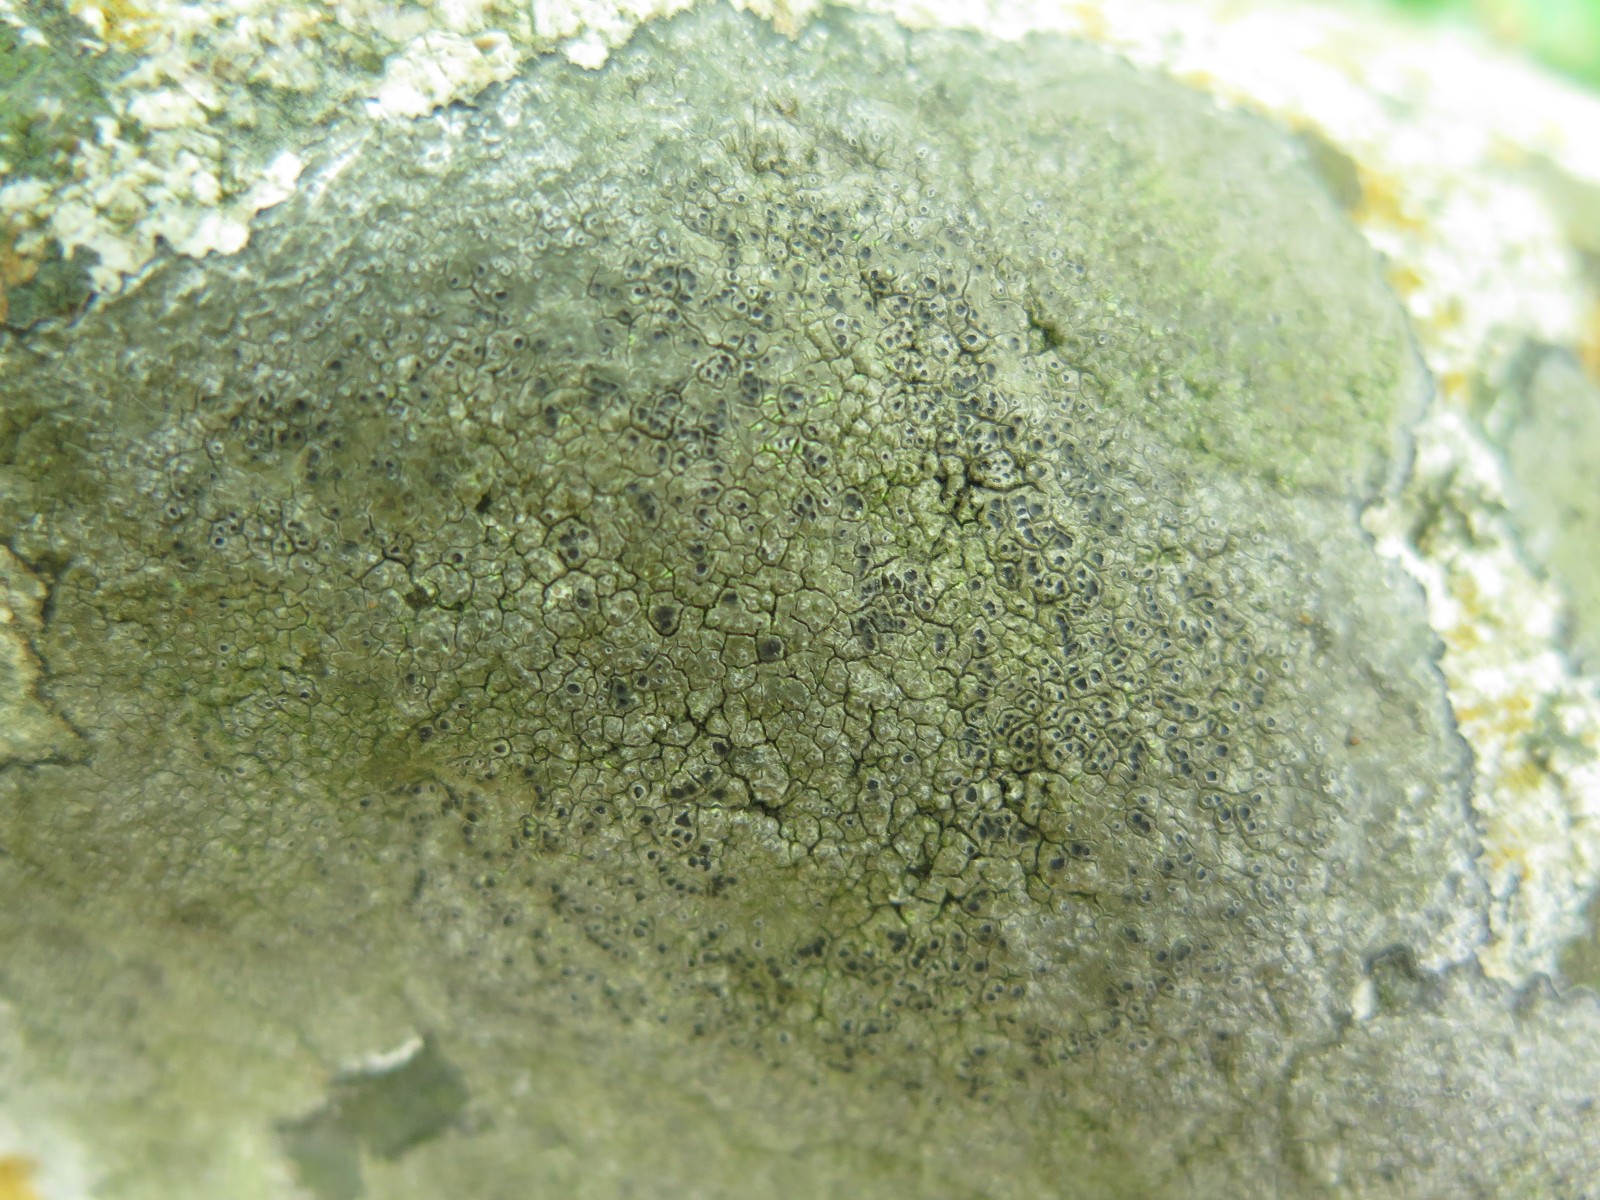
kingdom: Fungi
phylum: Ascomycota
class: Lecanoromycetes
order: Pertusariales
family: Megasporaceae
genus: Circinaria
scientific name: Circinaria caesiocinerea
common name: fuglestens-hulskivelav
